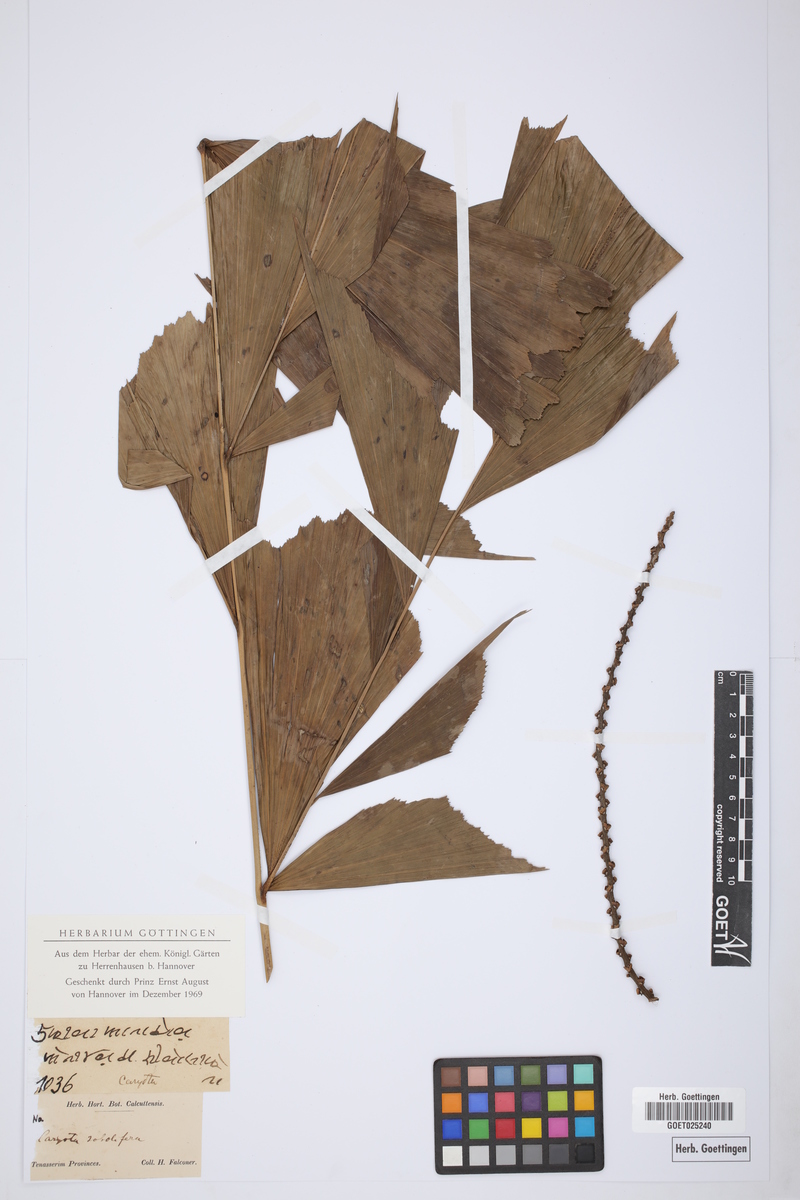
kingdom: Plantae
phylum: Tracheophyta
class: Liliopsida
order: Arecales
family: Arecaceae
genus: Caryota
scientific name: Caryota mitis
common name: Burmese fishtail palm
